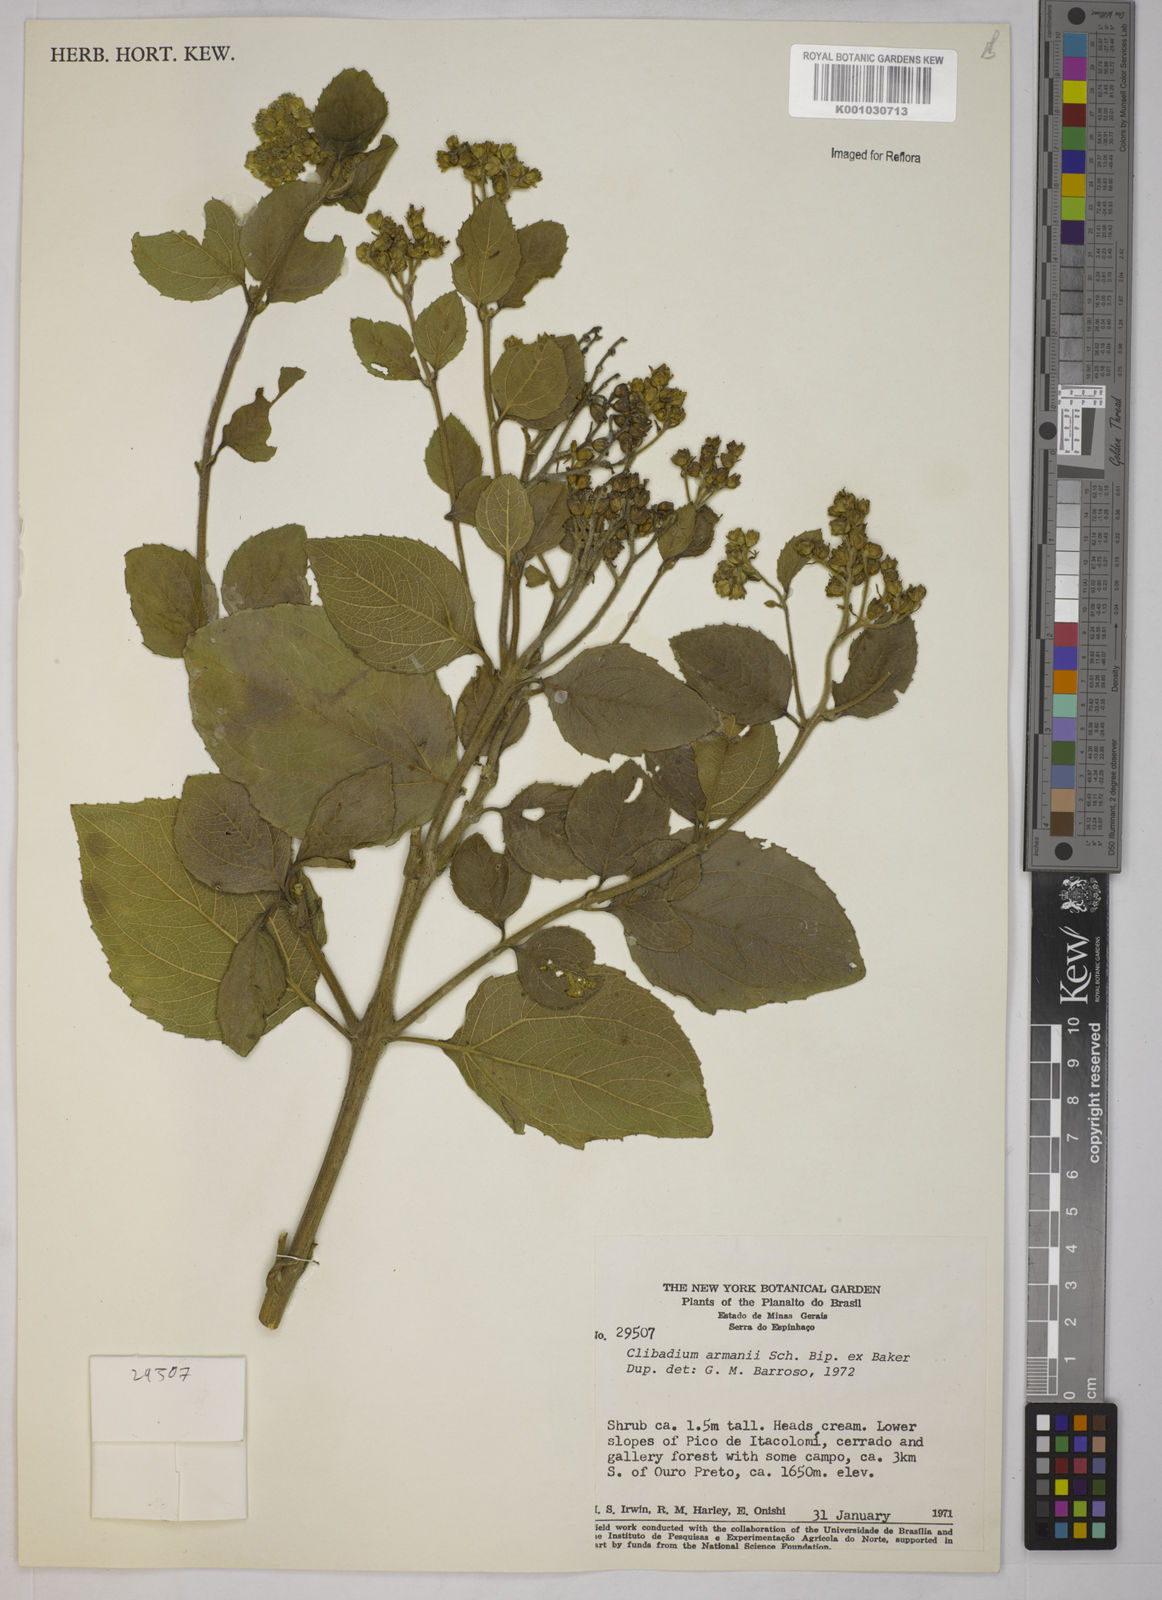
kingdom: Plantae
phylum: Tracheophyta
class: Magnoliopsida
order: Asterales
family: Asteraceae
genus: Clibadium
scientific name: Clibadium armanii
